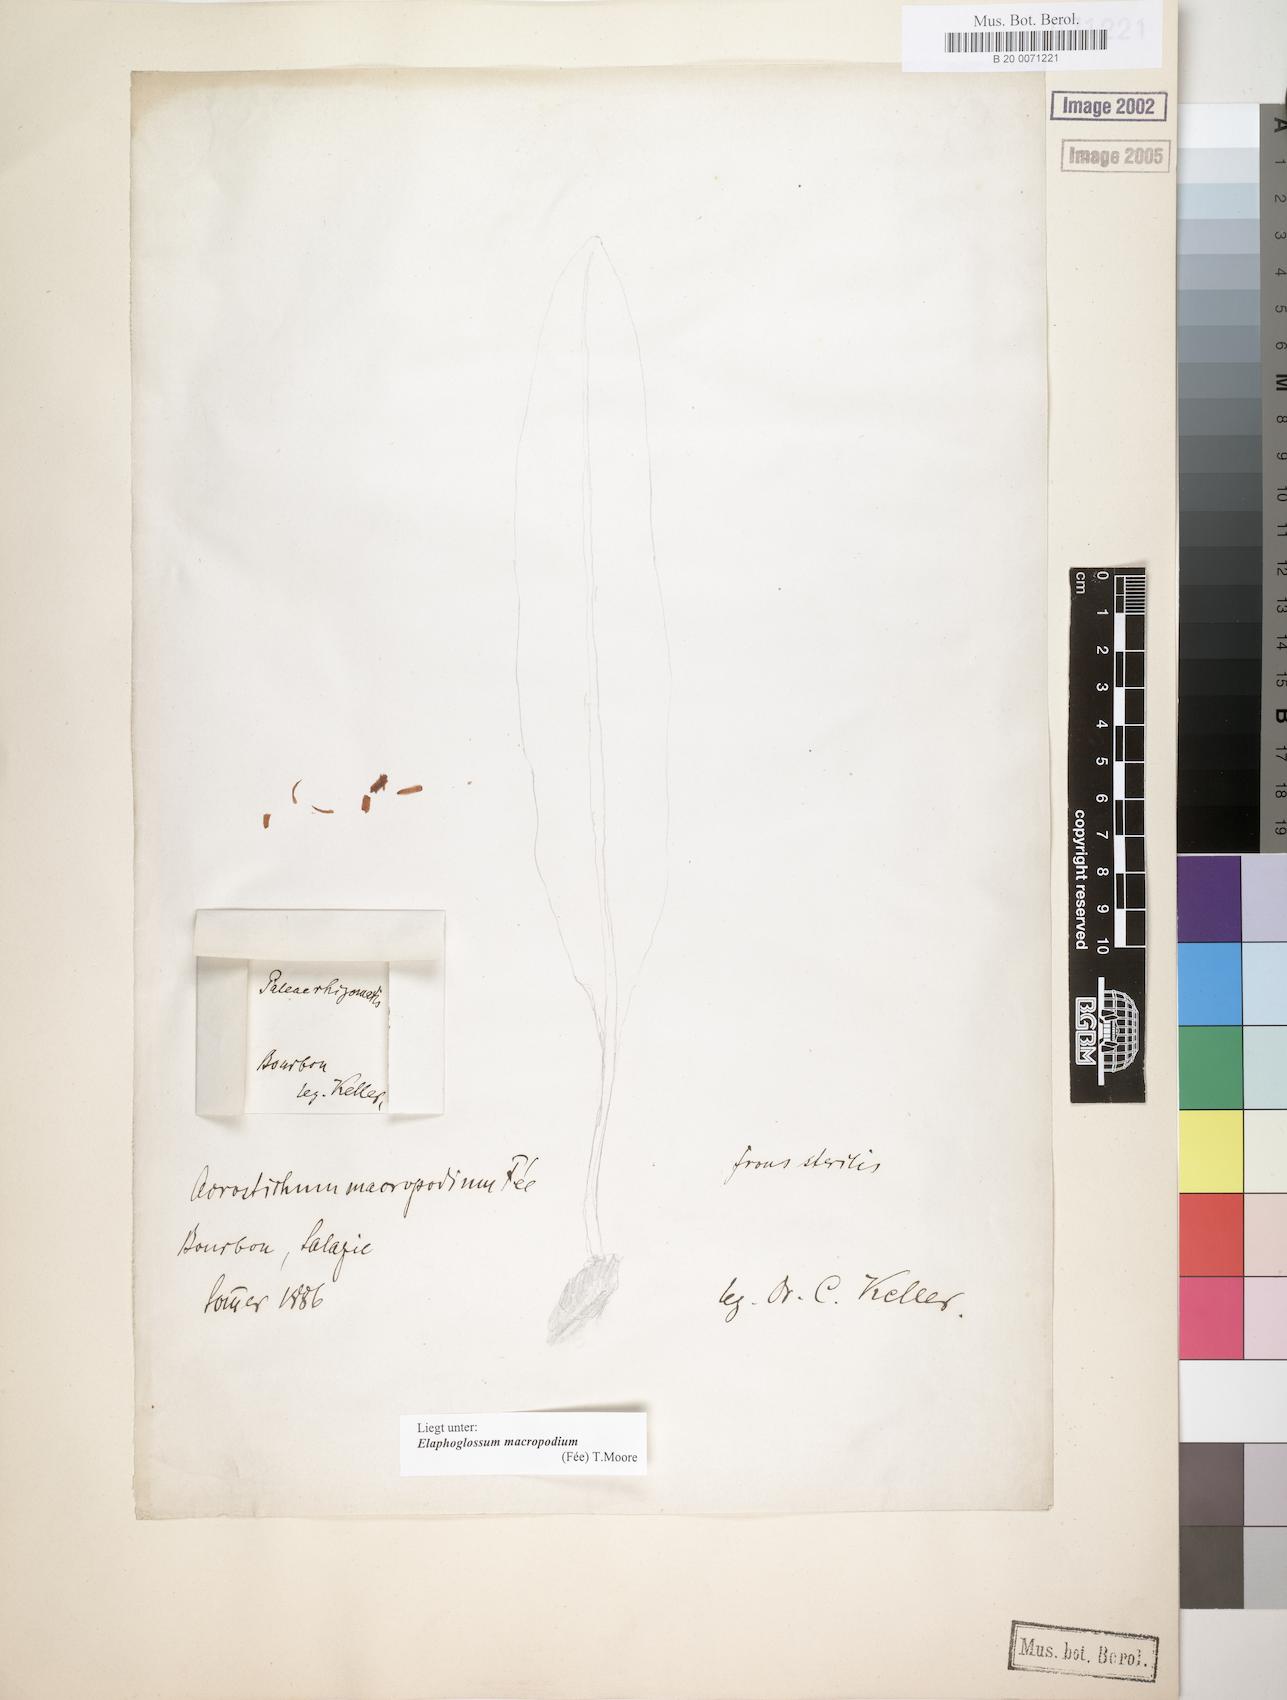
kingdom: Plantae
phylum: Tracheophyta
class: Polypodiopsida
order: Polypodiales
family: Dryopteridaceae
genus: Elaphoglossum
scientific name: Elaphoglossum macropodium
